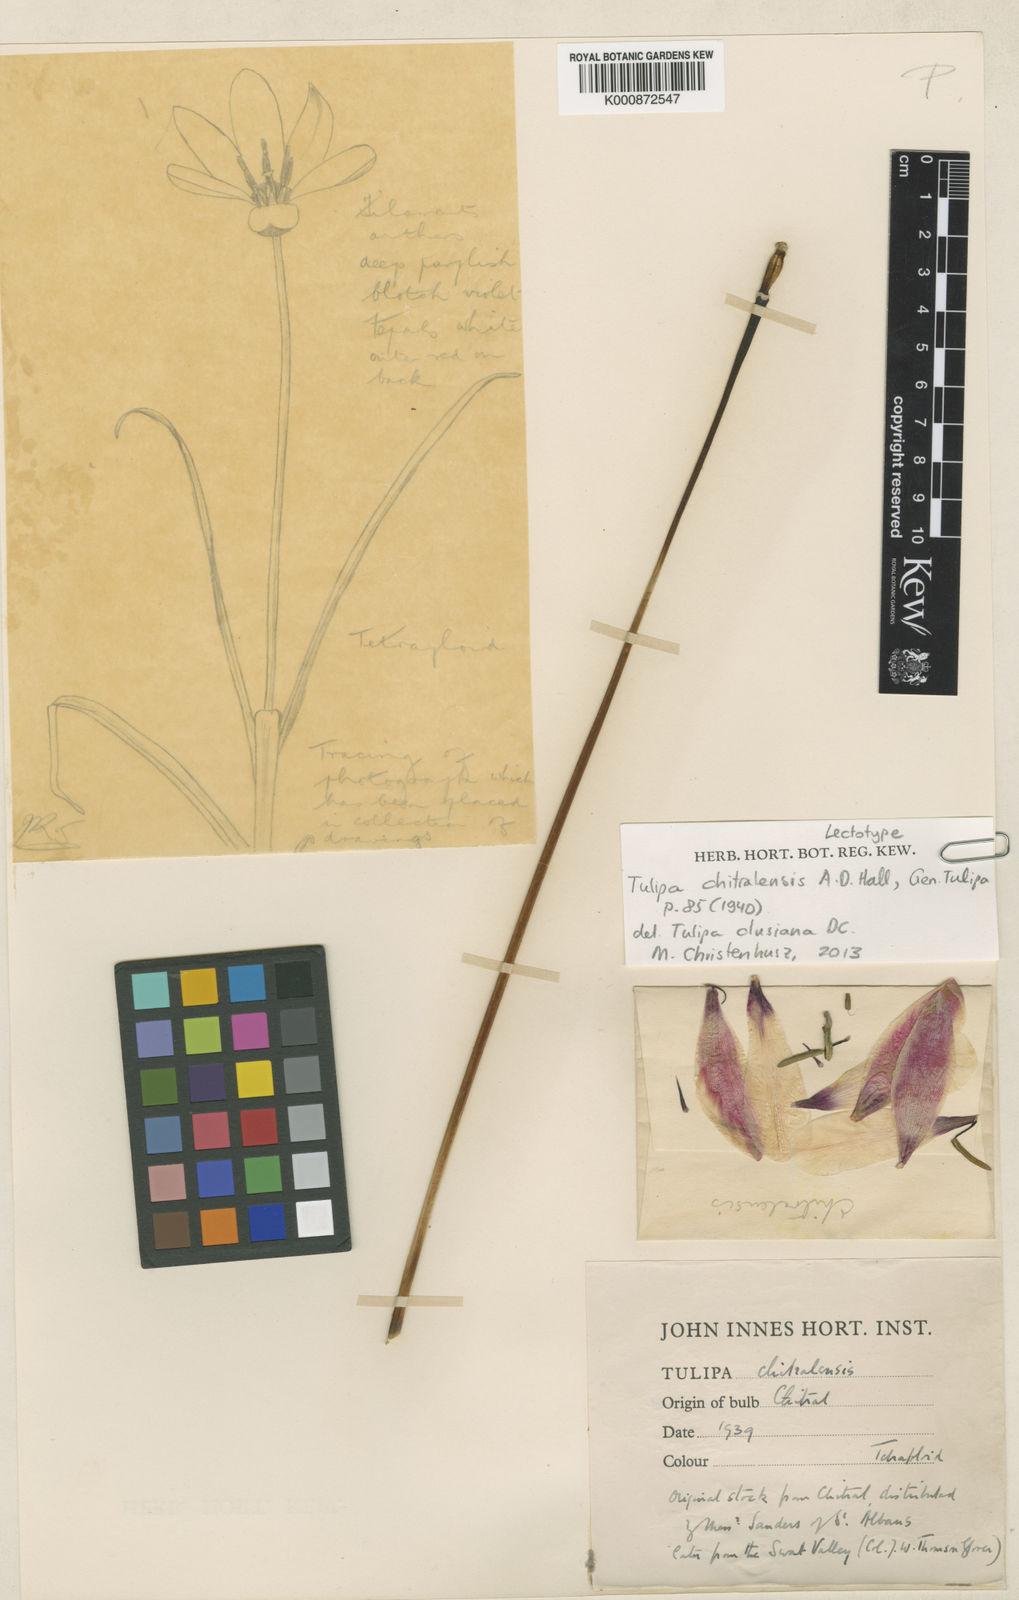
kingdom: Plantae
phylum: Tracheophyta
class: Liliopsida
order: Liliales
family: Liliaceae
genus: Tulipa
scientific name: Tulipa
